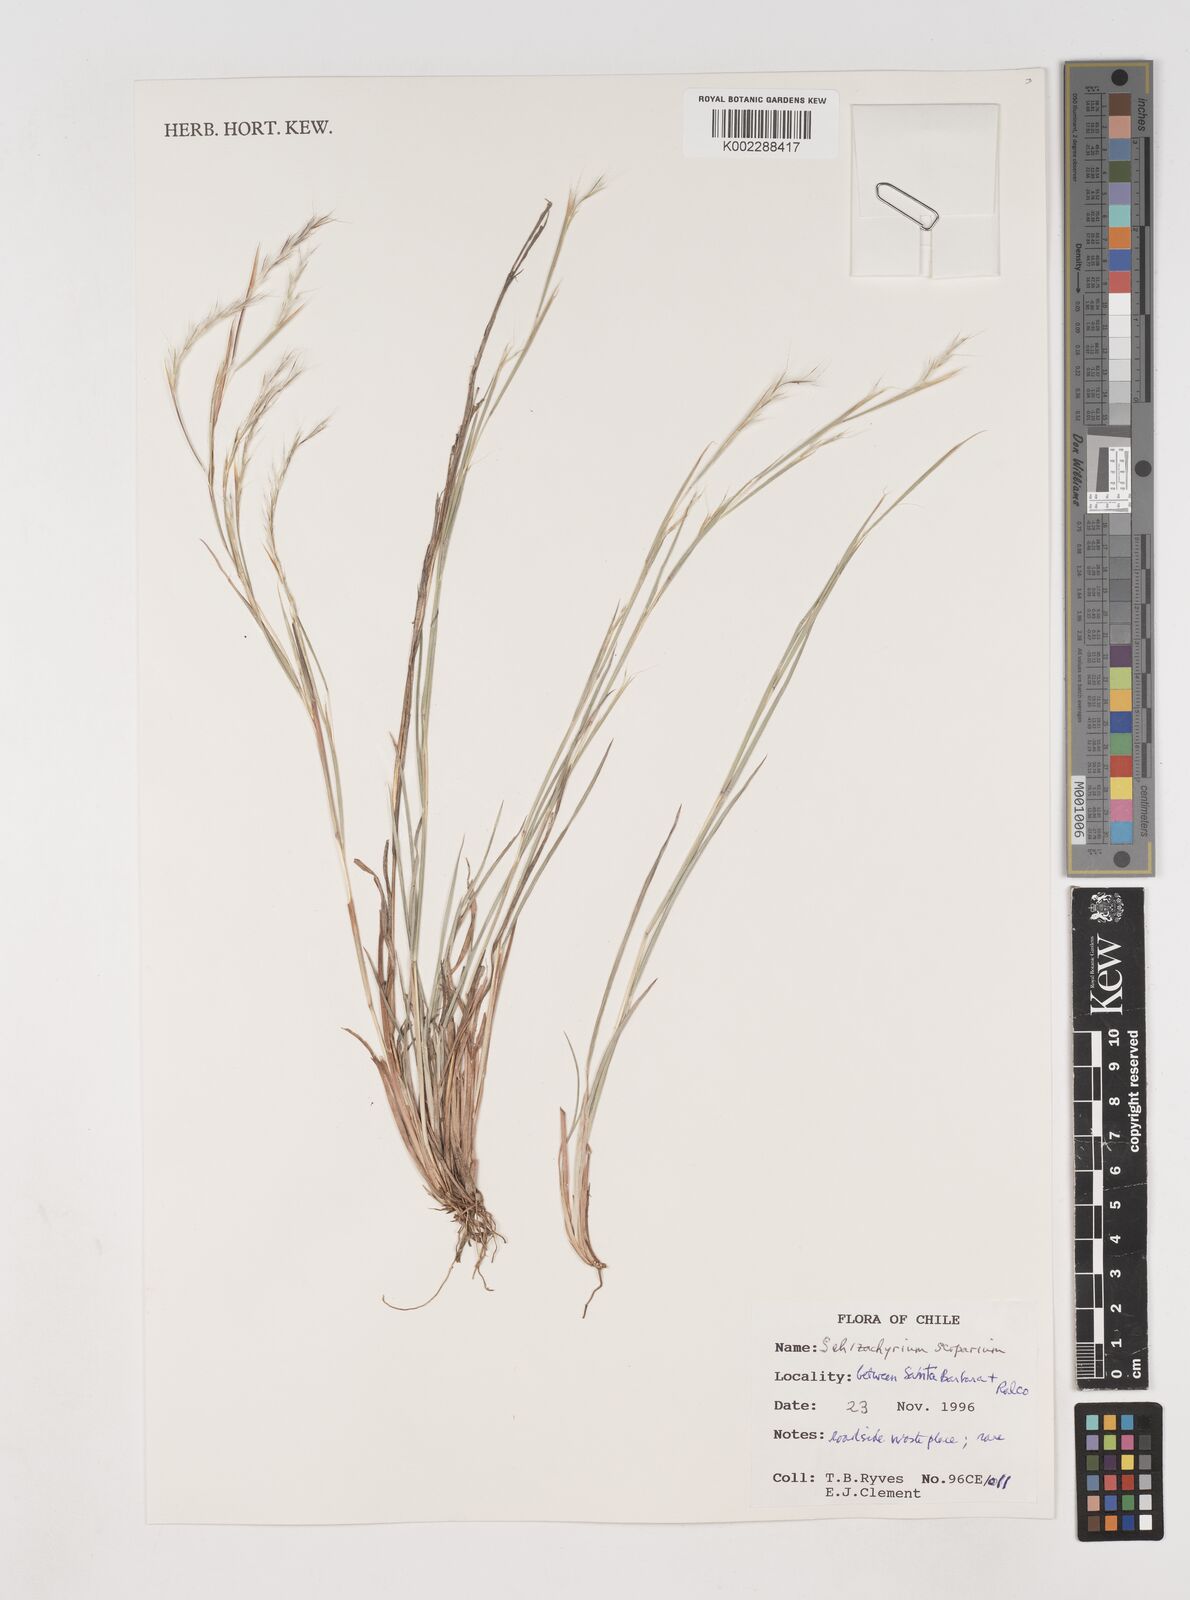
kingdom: Plantae
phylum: Tracheophyta
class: Liliopsida
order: Poales
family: Poaceae
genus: Schizachyrium
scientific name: Schizachyrium scoparium
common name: Little bluestem
